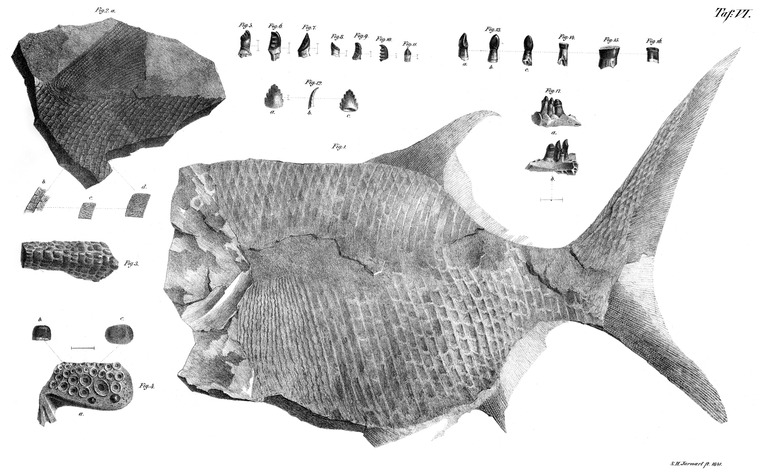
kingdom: Animalia
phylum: Chordata
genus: Soricidens
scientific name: Soricidens
